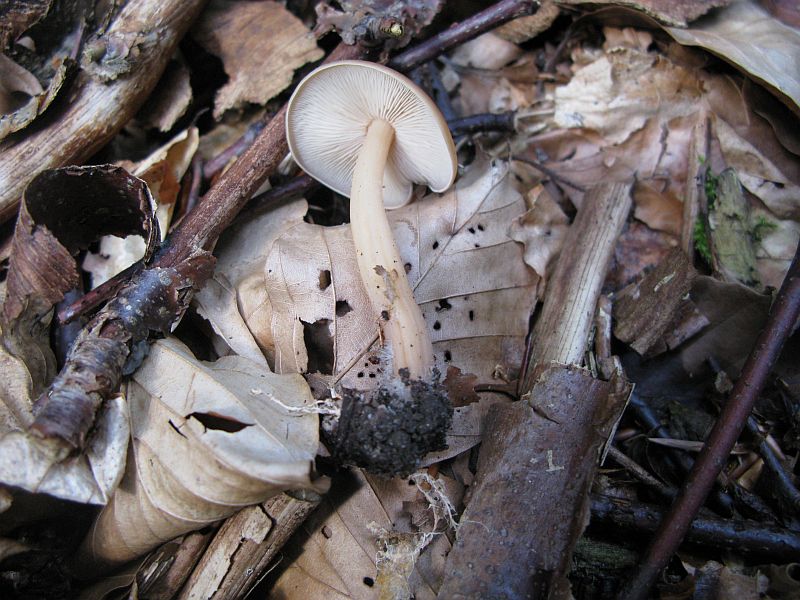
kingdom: Fungi
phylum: Basidiomycota
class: Agaricomycetes
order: Agaricales
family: Omphalotaceae
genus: Gymnopus
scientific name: Gymnopus ocior
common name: mørk fladhat
